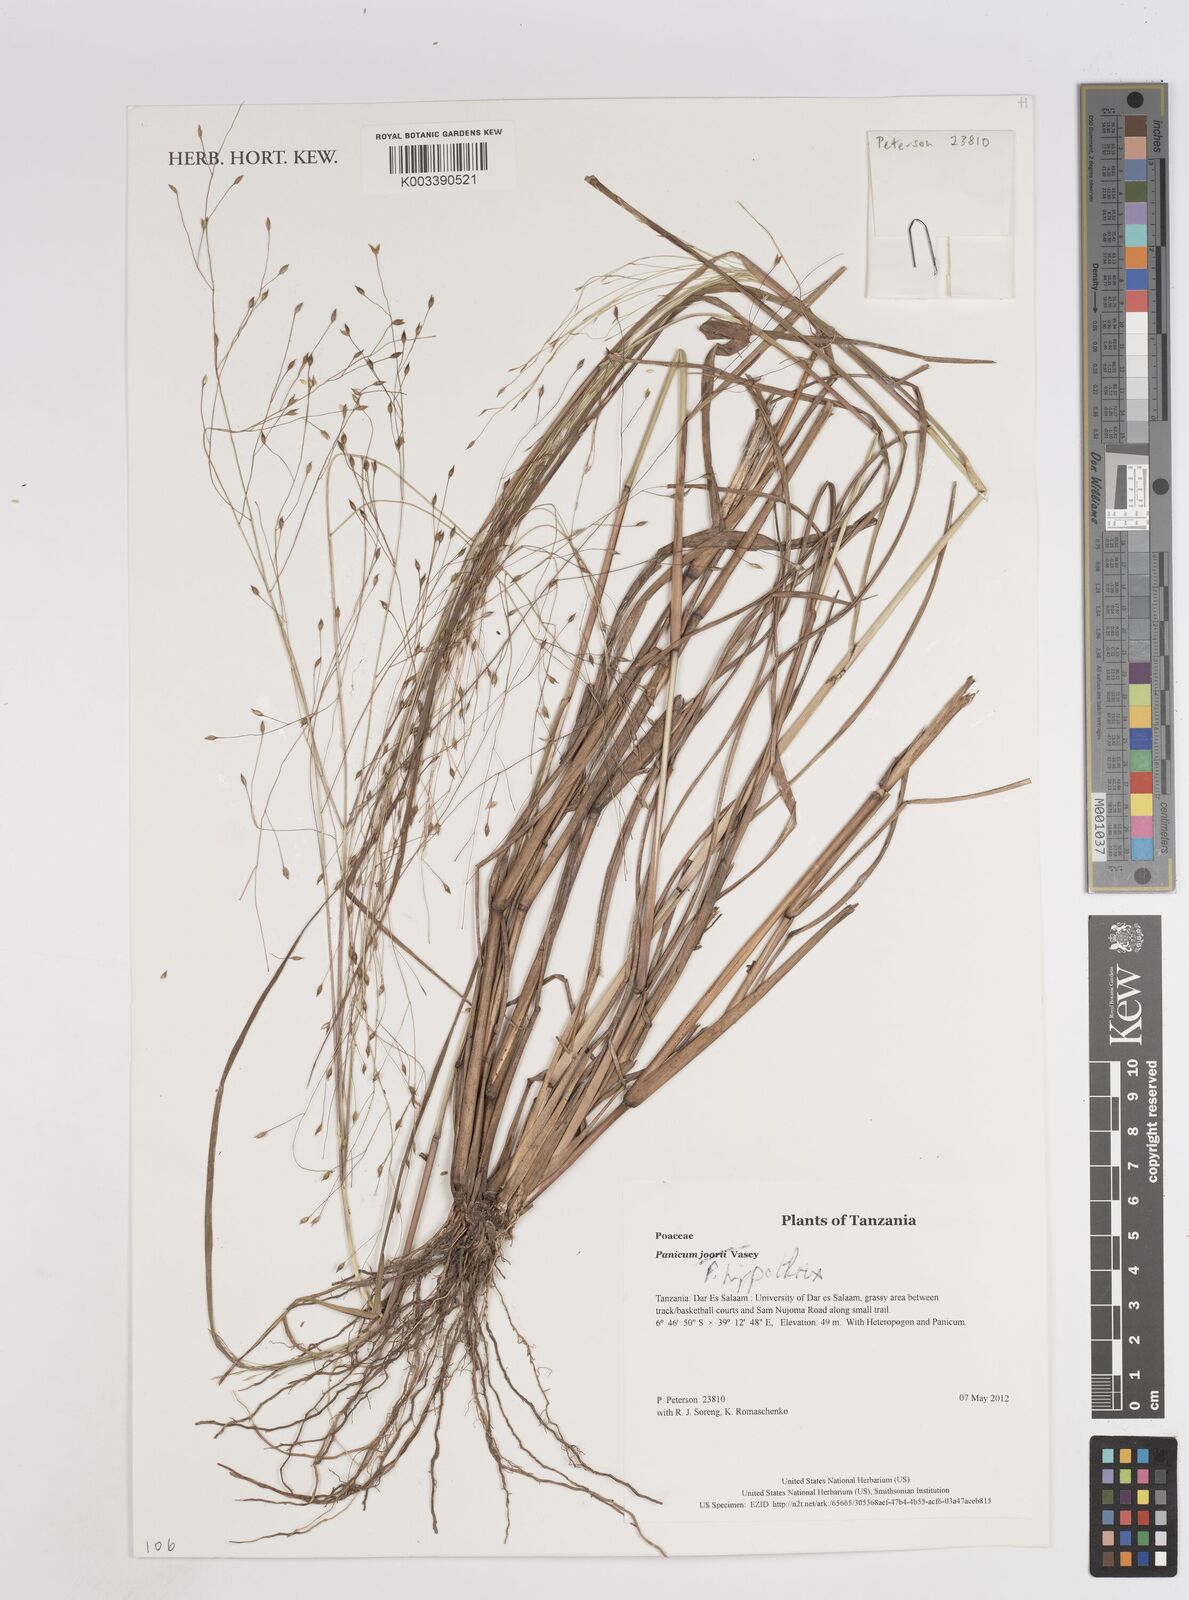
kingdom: Plantae
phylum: Tracheophyta
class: Liliopsida
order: Poales
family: Poaceae
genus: Panicum
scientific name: Panicum hippothrix
